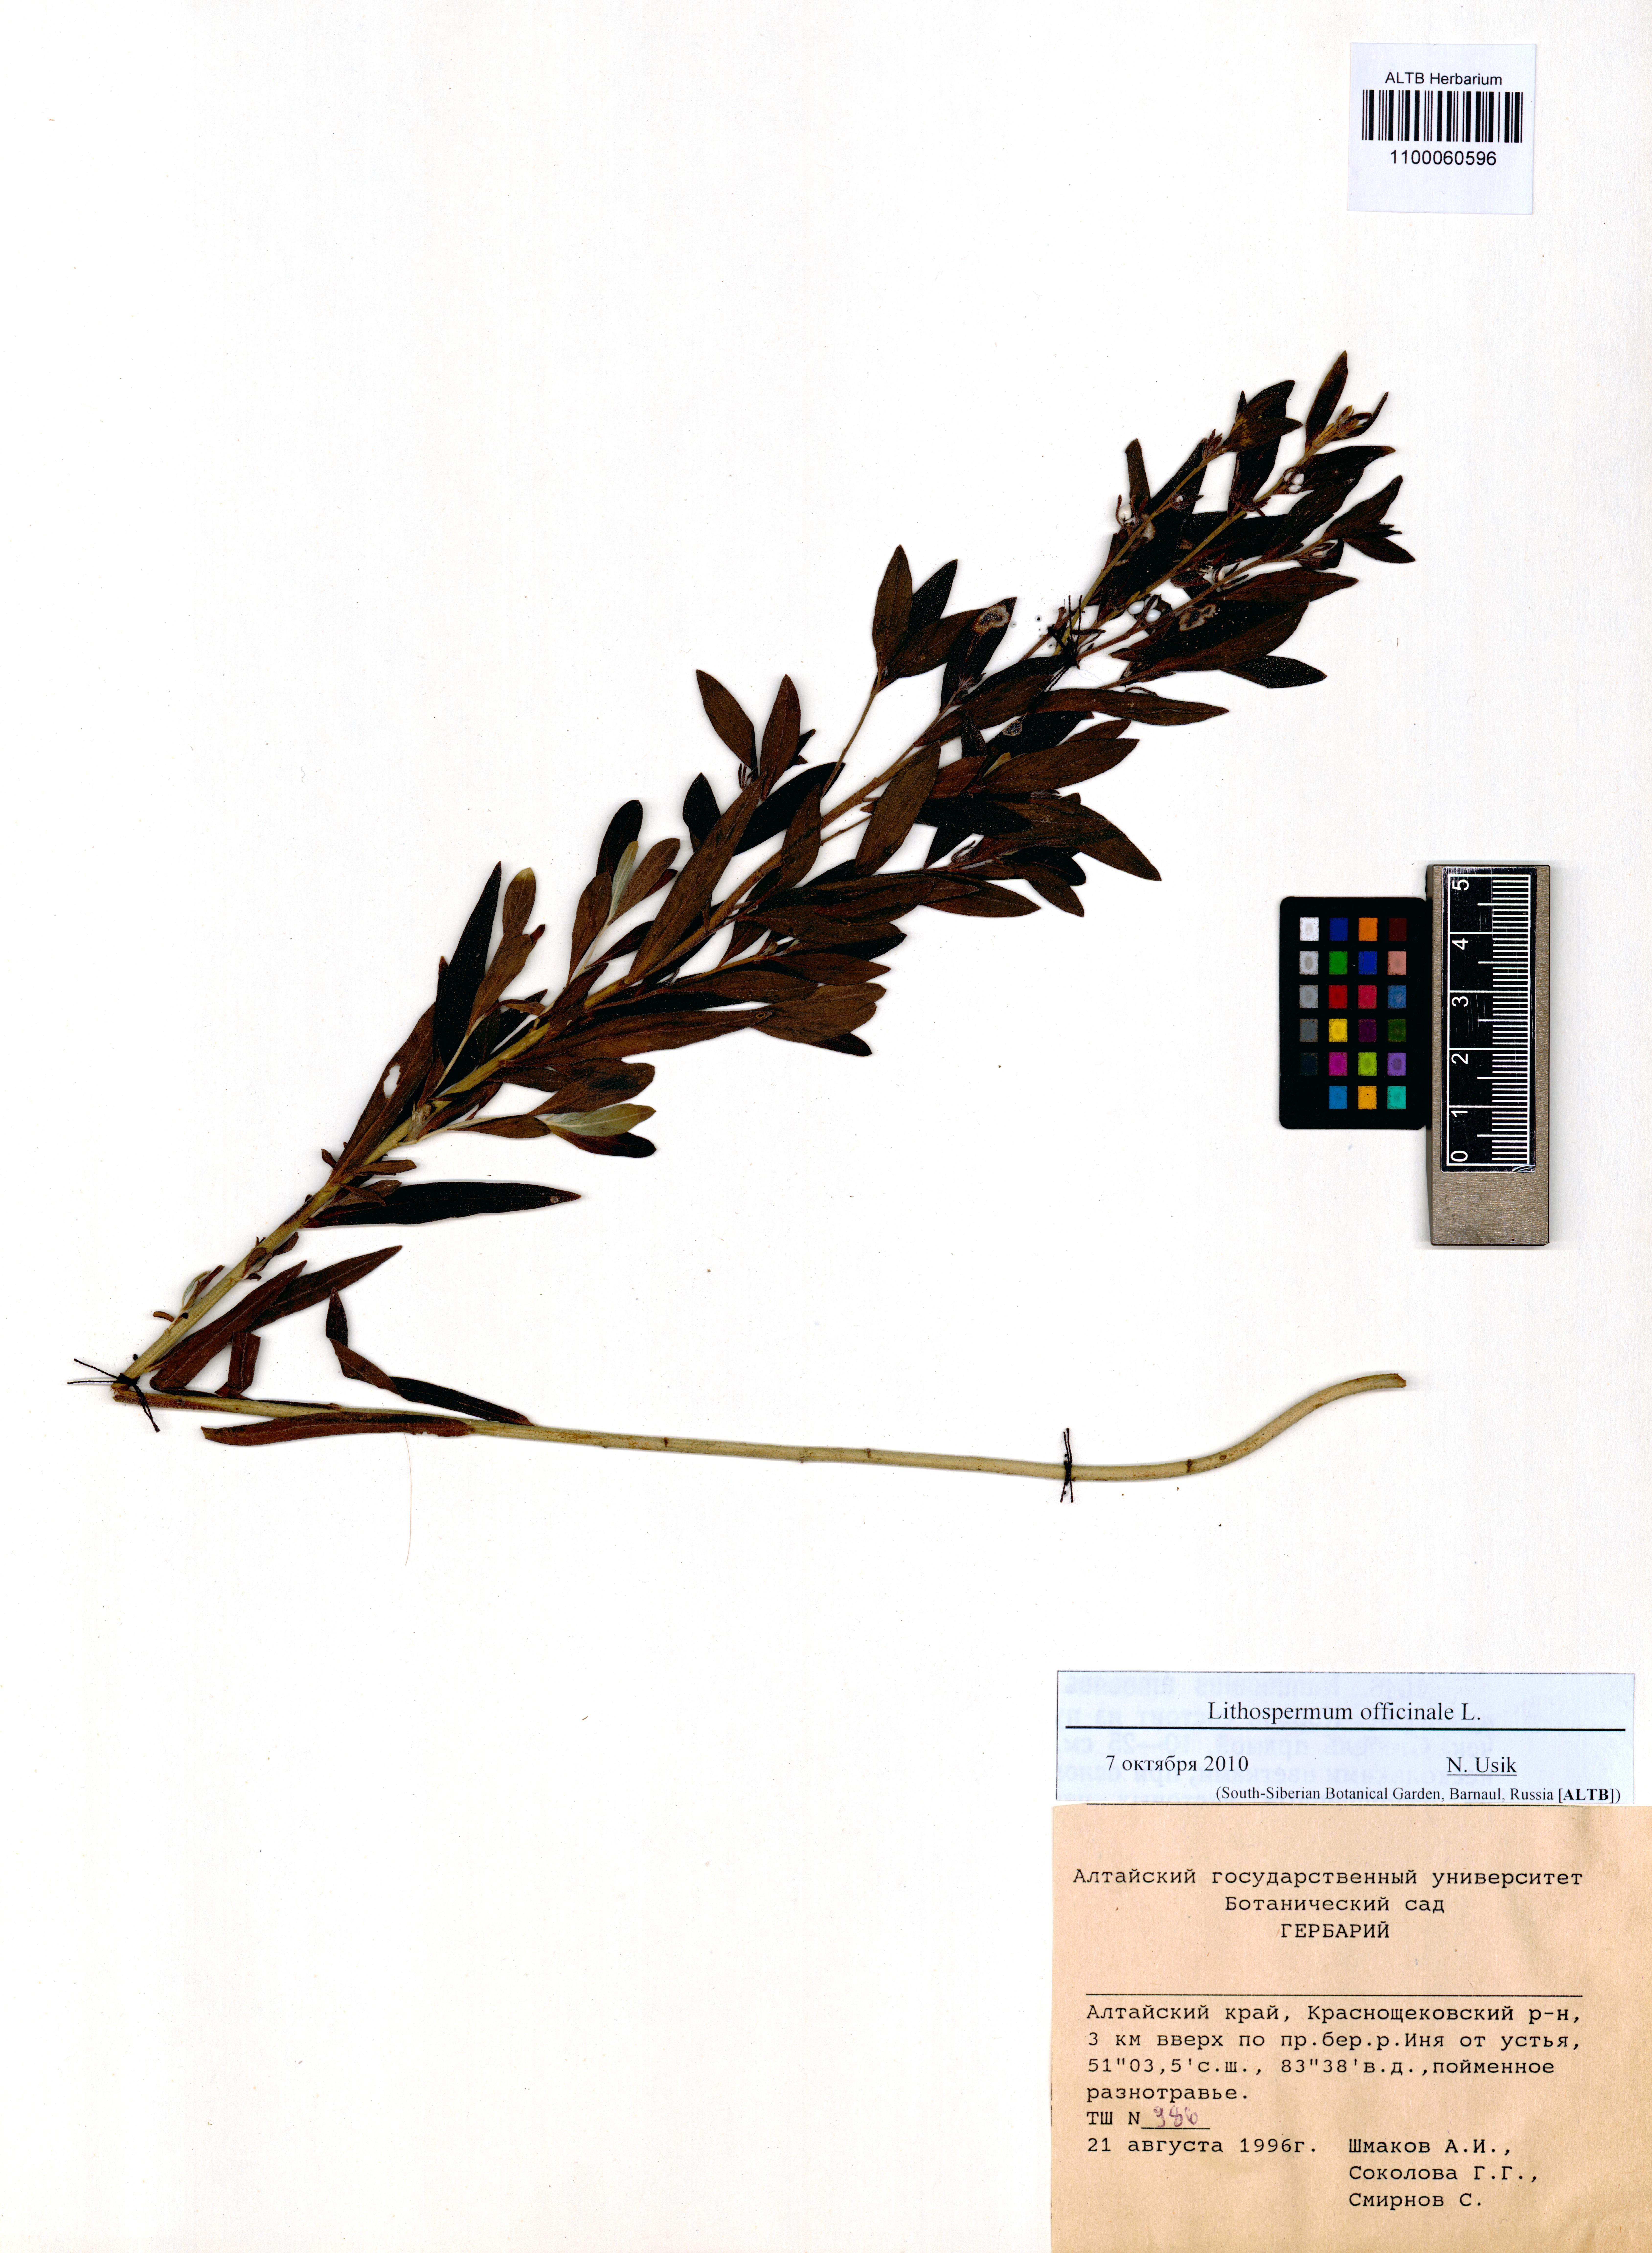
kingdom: Plantae
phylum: Tracheophyta
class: Magnoliopsida
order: Boraginales
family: Boraginaceae
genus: Lithospermum
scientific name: Lithospermum officinale
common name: Common gromwell
